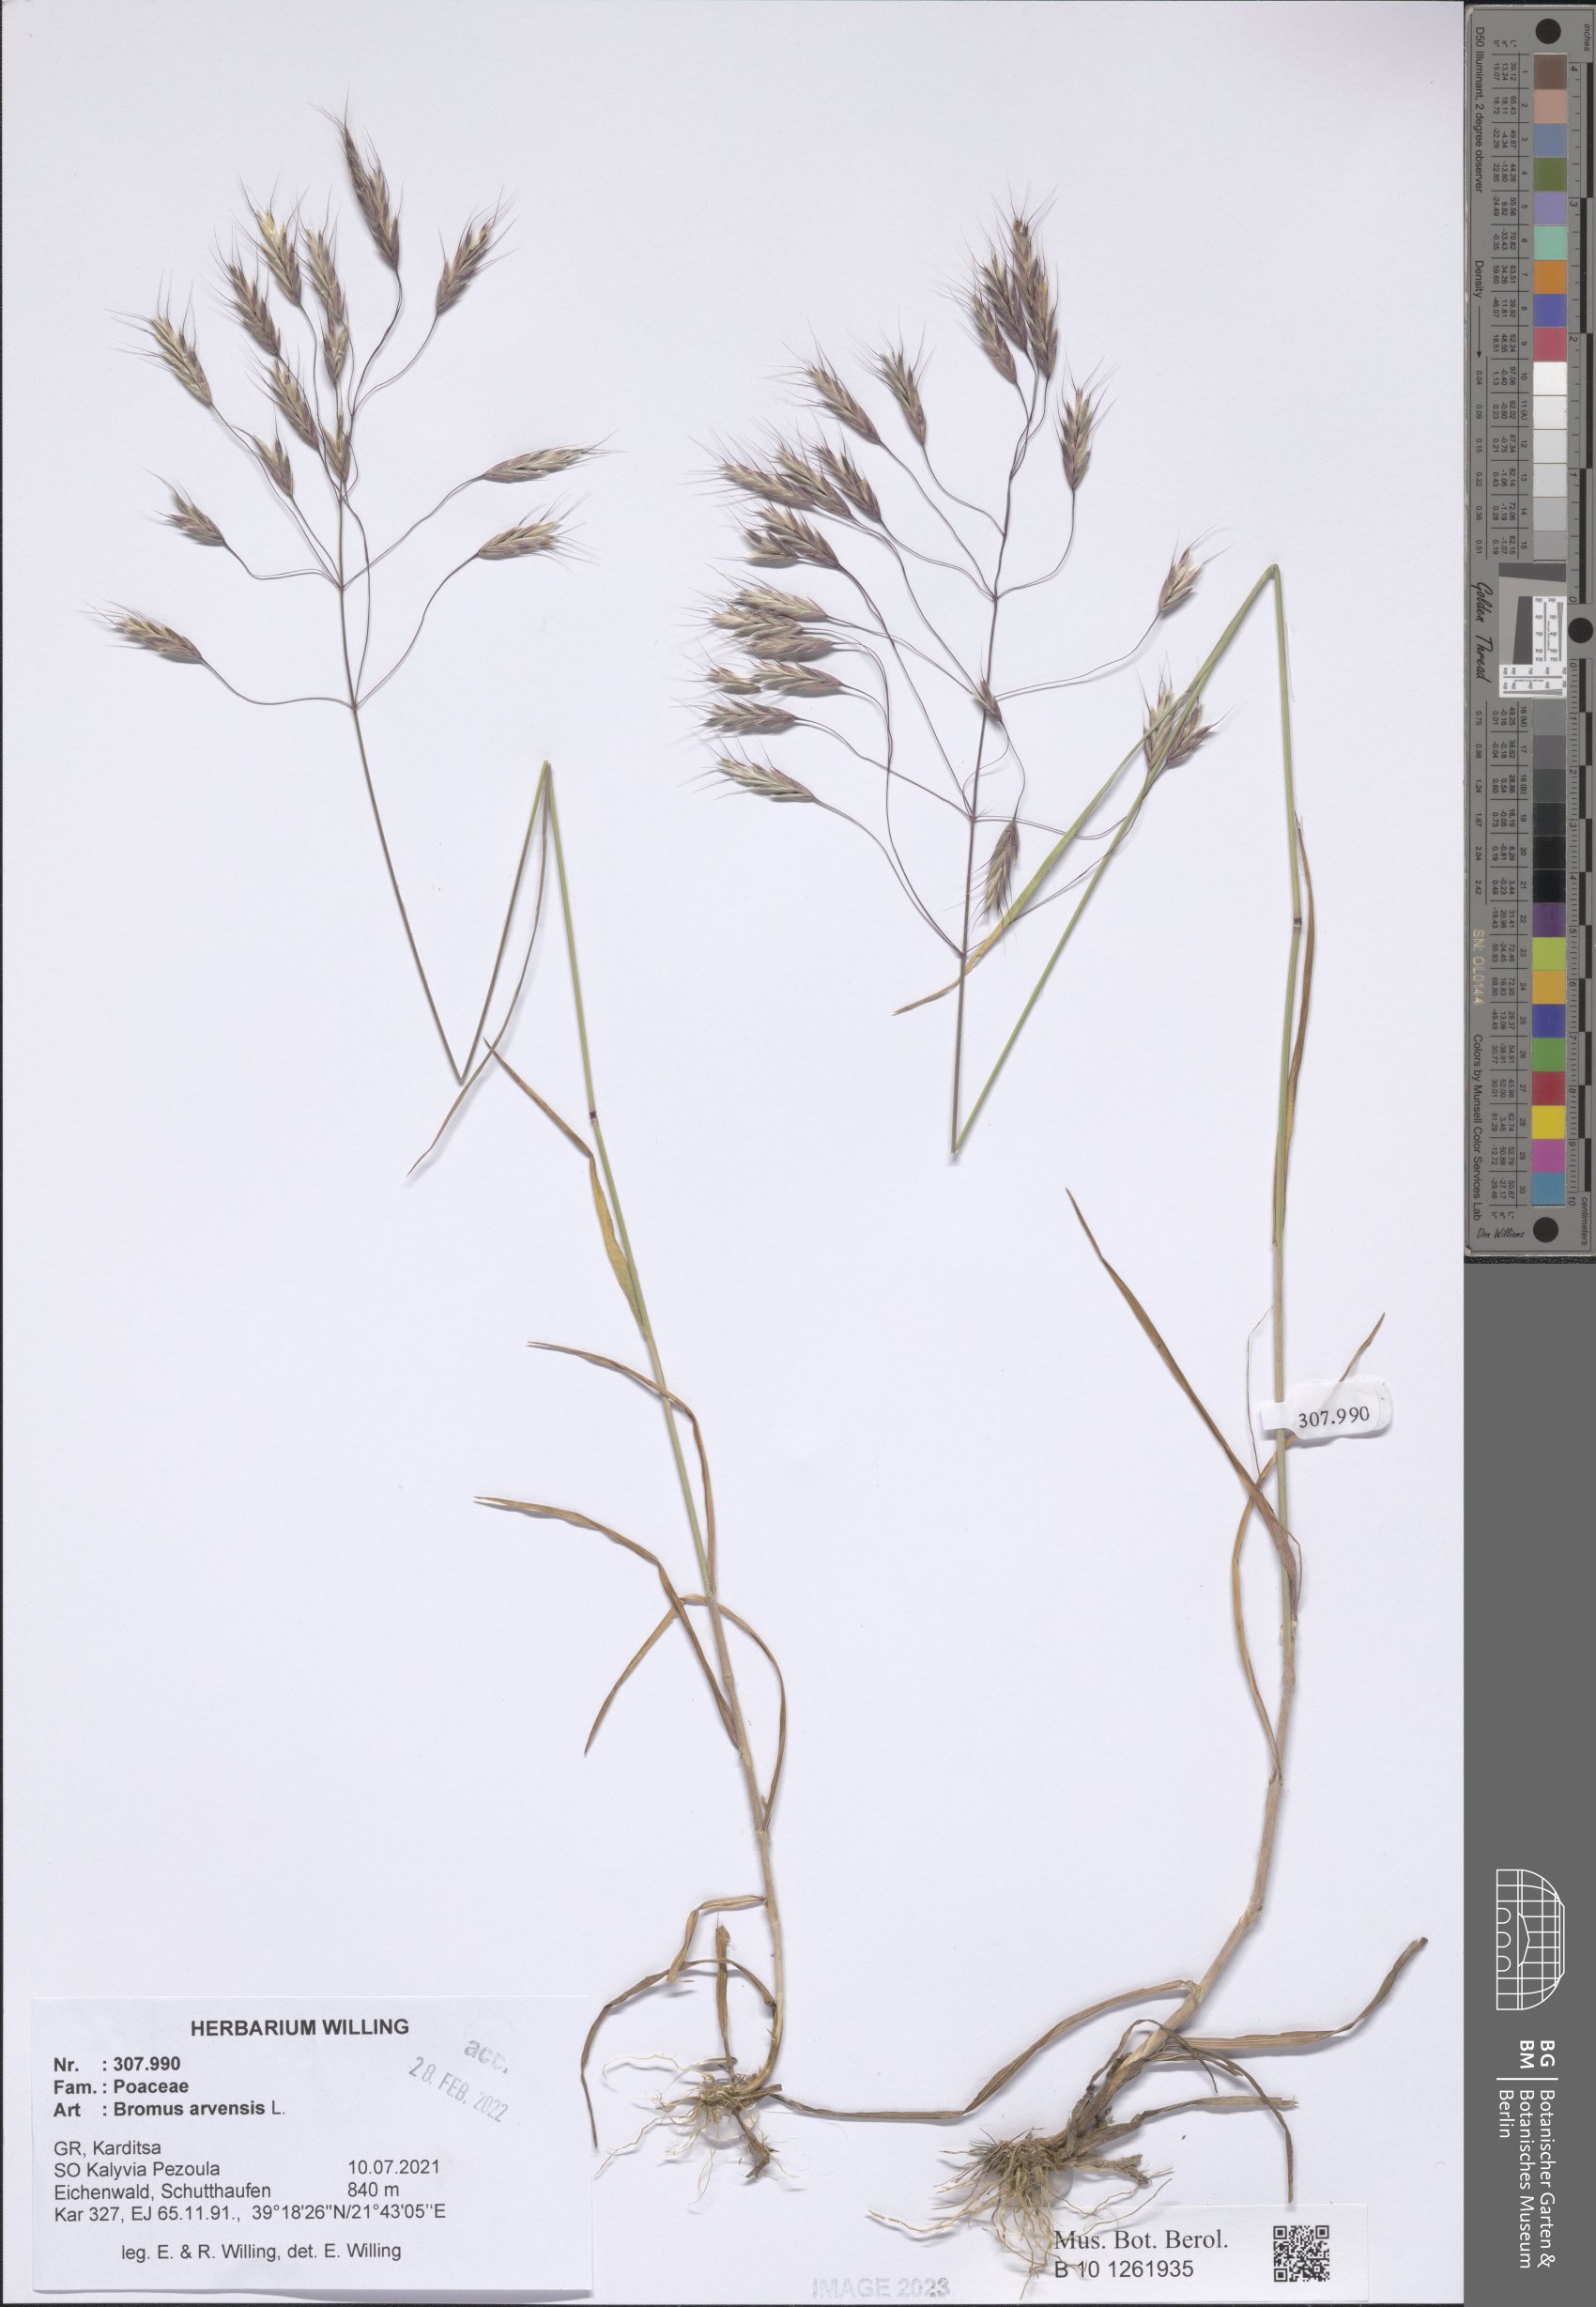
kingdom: Plantae
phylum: Tracheophyta
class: Liliopsida
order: Poales
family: Poaceae
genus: Bromus
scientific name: Bromus arvensis
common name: Field brome
